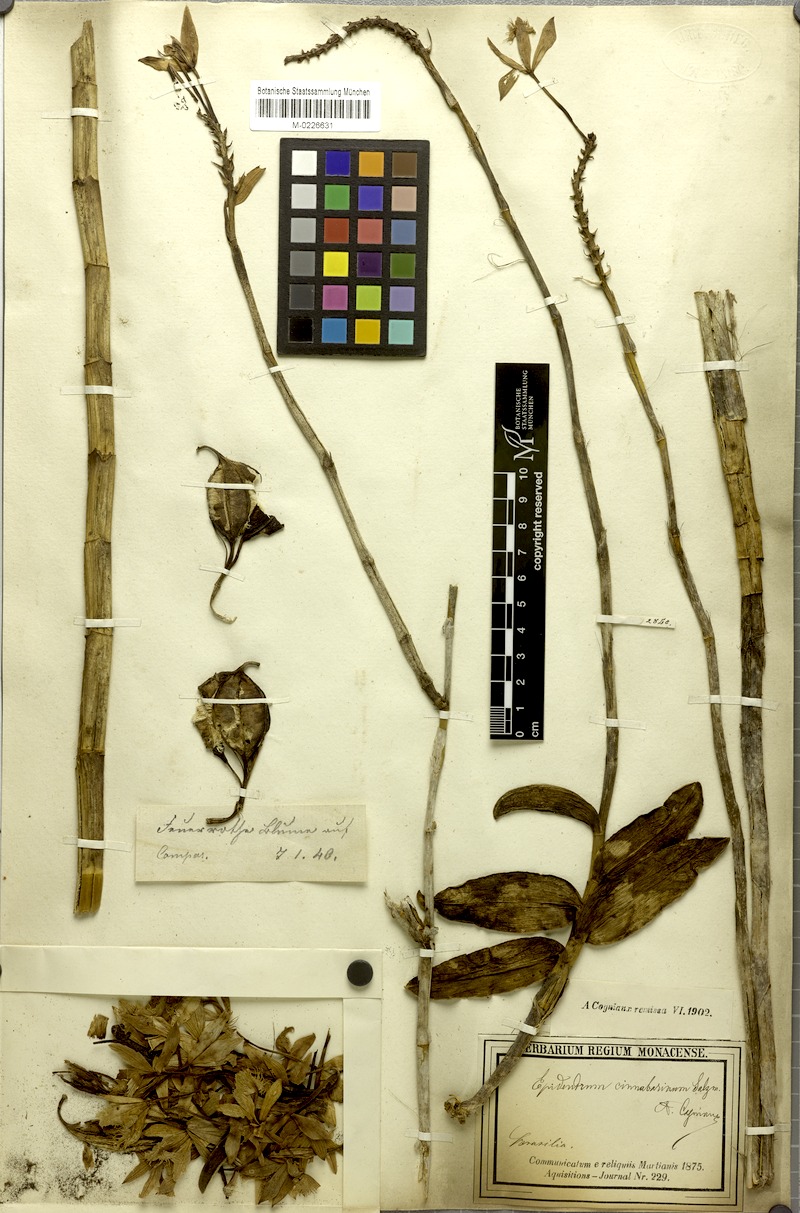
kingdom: Plantae
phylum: Tracheophyta
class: Liliopsida
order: Asparagales
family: Orchidaceae
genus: Epidendrum
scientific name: Epidendrum cinnabarinum
